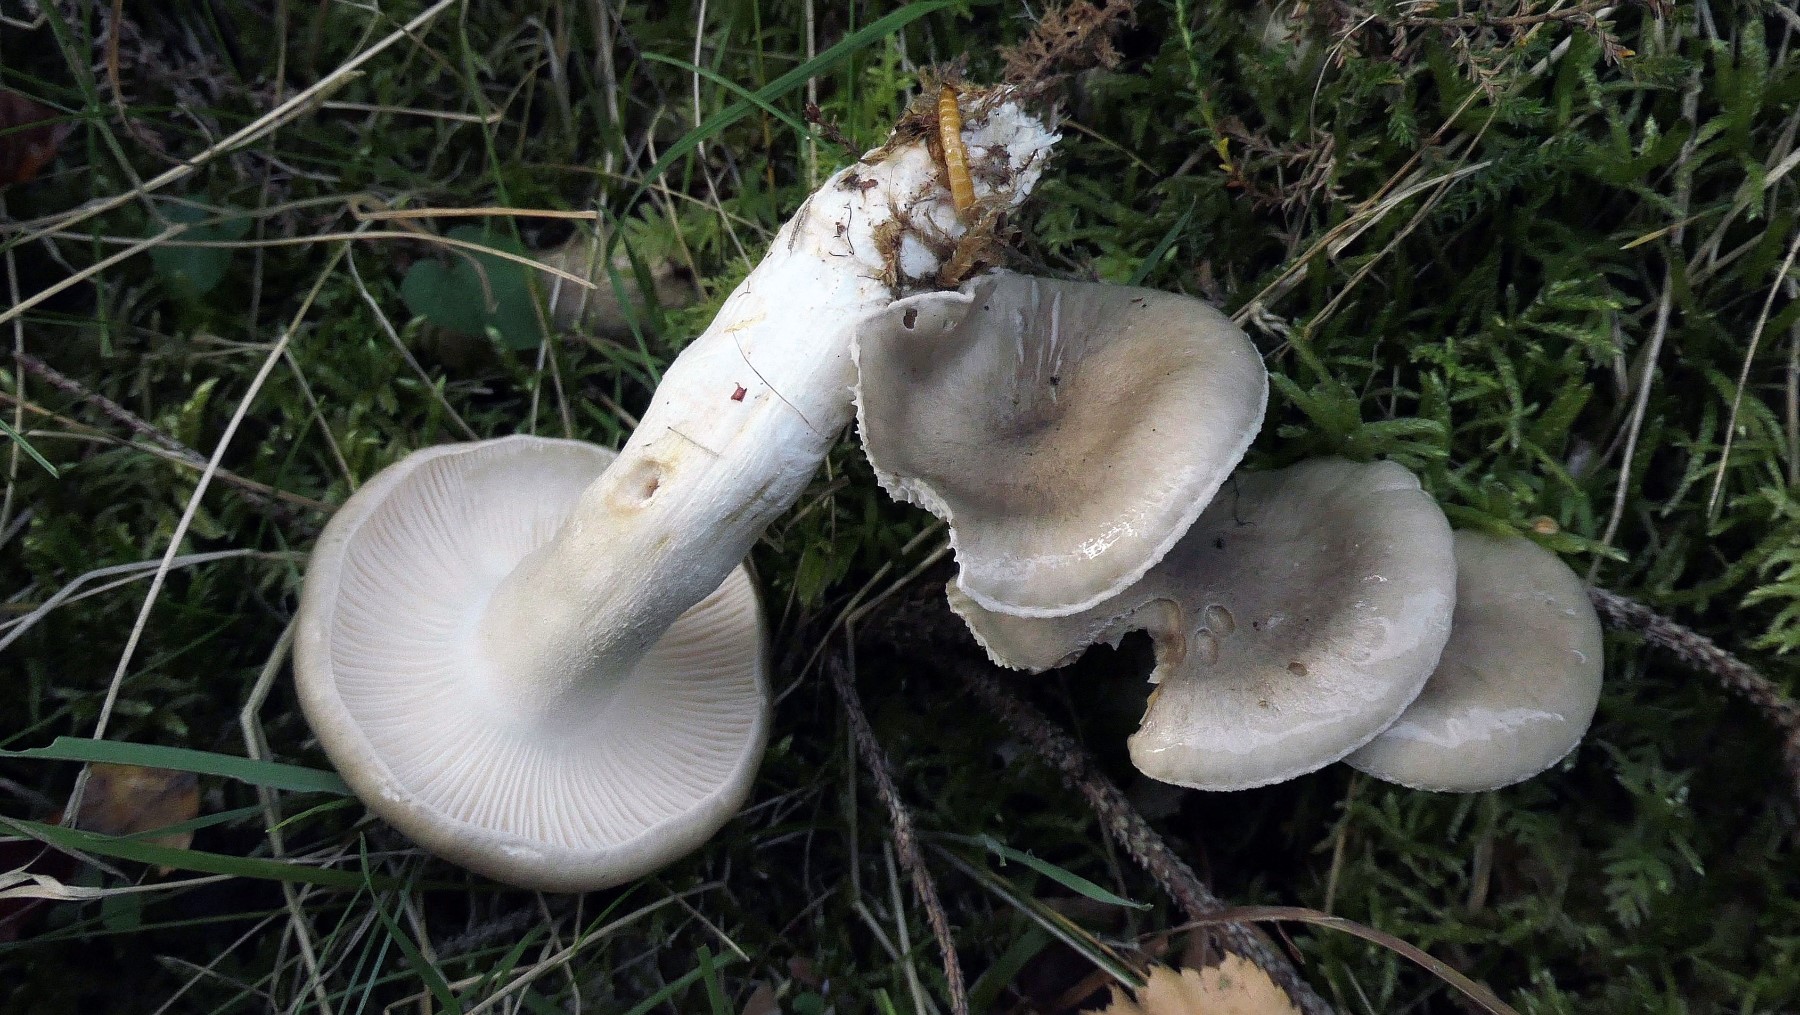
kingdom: Fungi
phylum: Basidiomycota
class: Agaricomycetes
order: Agaricales
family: Hygrophoraceae
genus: Hygrophorus
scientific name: Hygrophorus agathosmus
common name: vellugtende sneglehat
